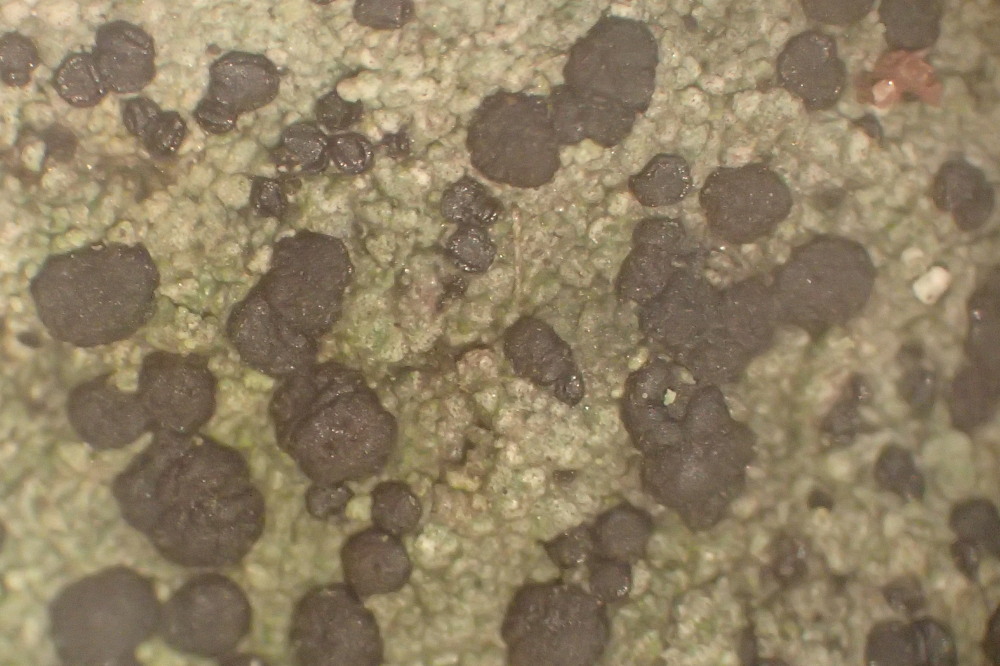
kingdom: Fungi
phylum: Ascomycota
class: Lecanoromycetes
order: Lecanorales
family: Lecanoraceae
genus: Lecidella
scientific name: Lecidella euphorea
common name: vortet skivelav
